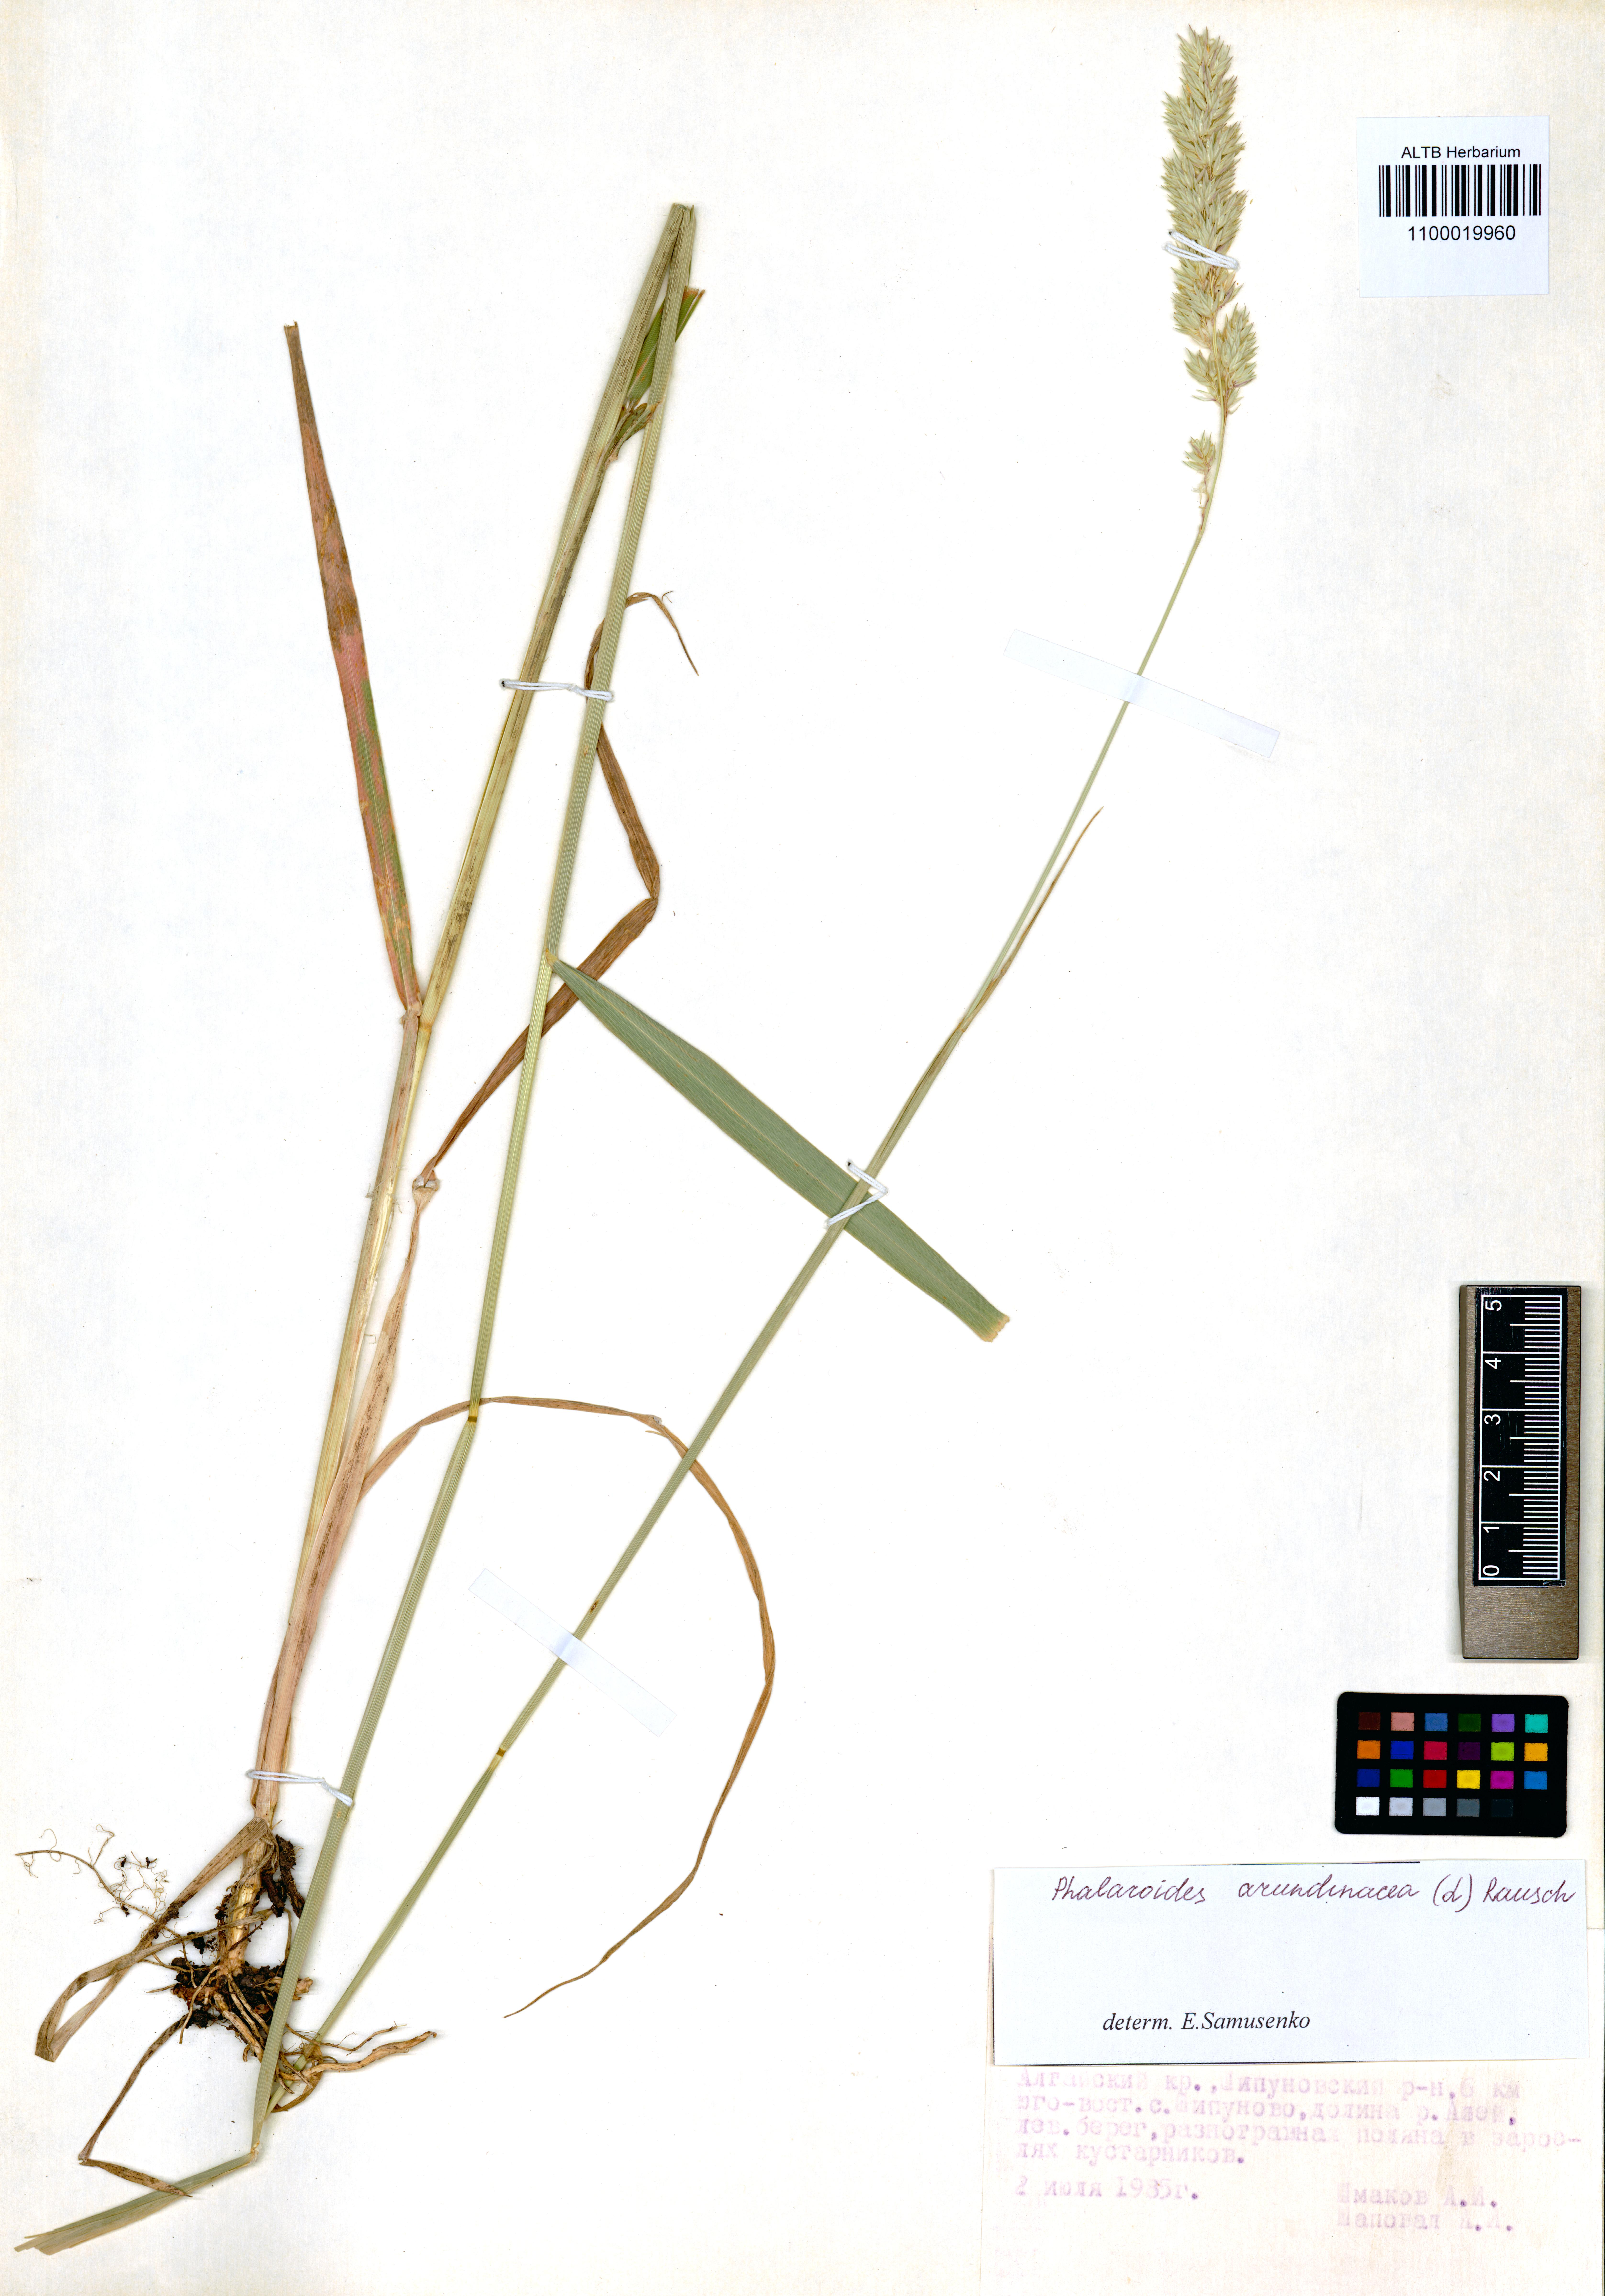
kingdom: Plantae
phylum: Tracheophyta
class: Liliopsida
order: Poales
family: Poaceae
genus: Phalaris
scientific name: Phalaris arundinacea
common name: Reed canary-grass
